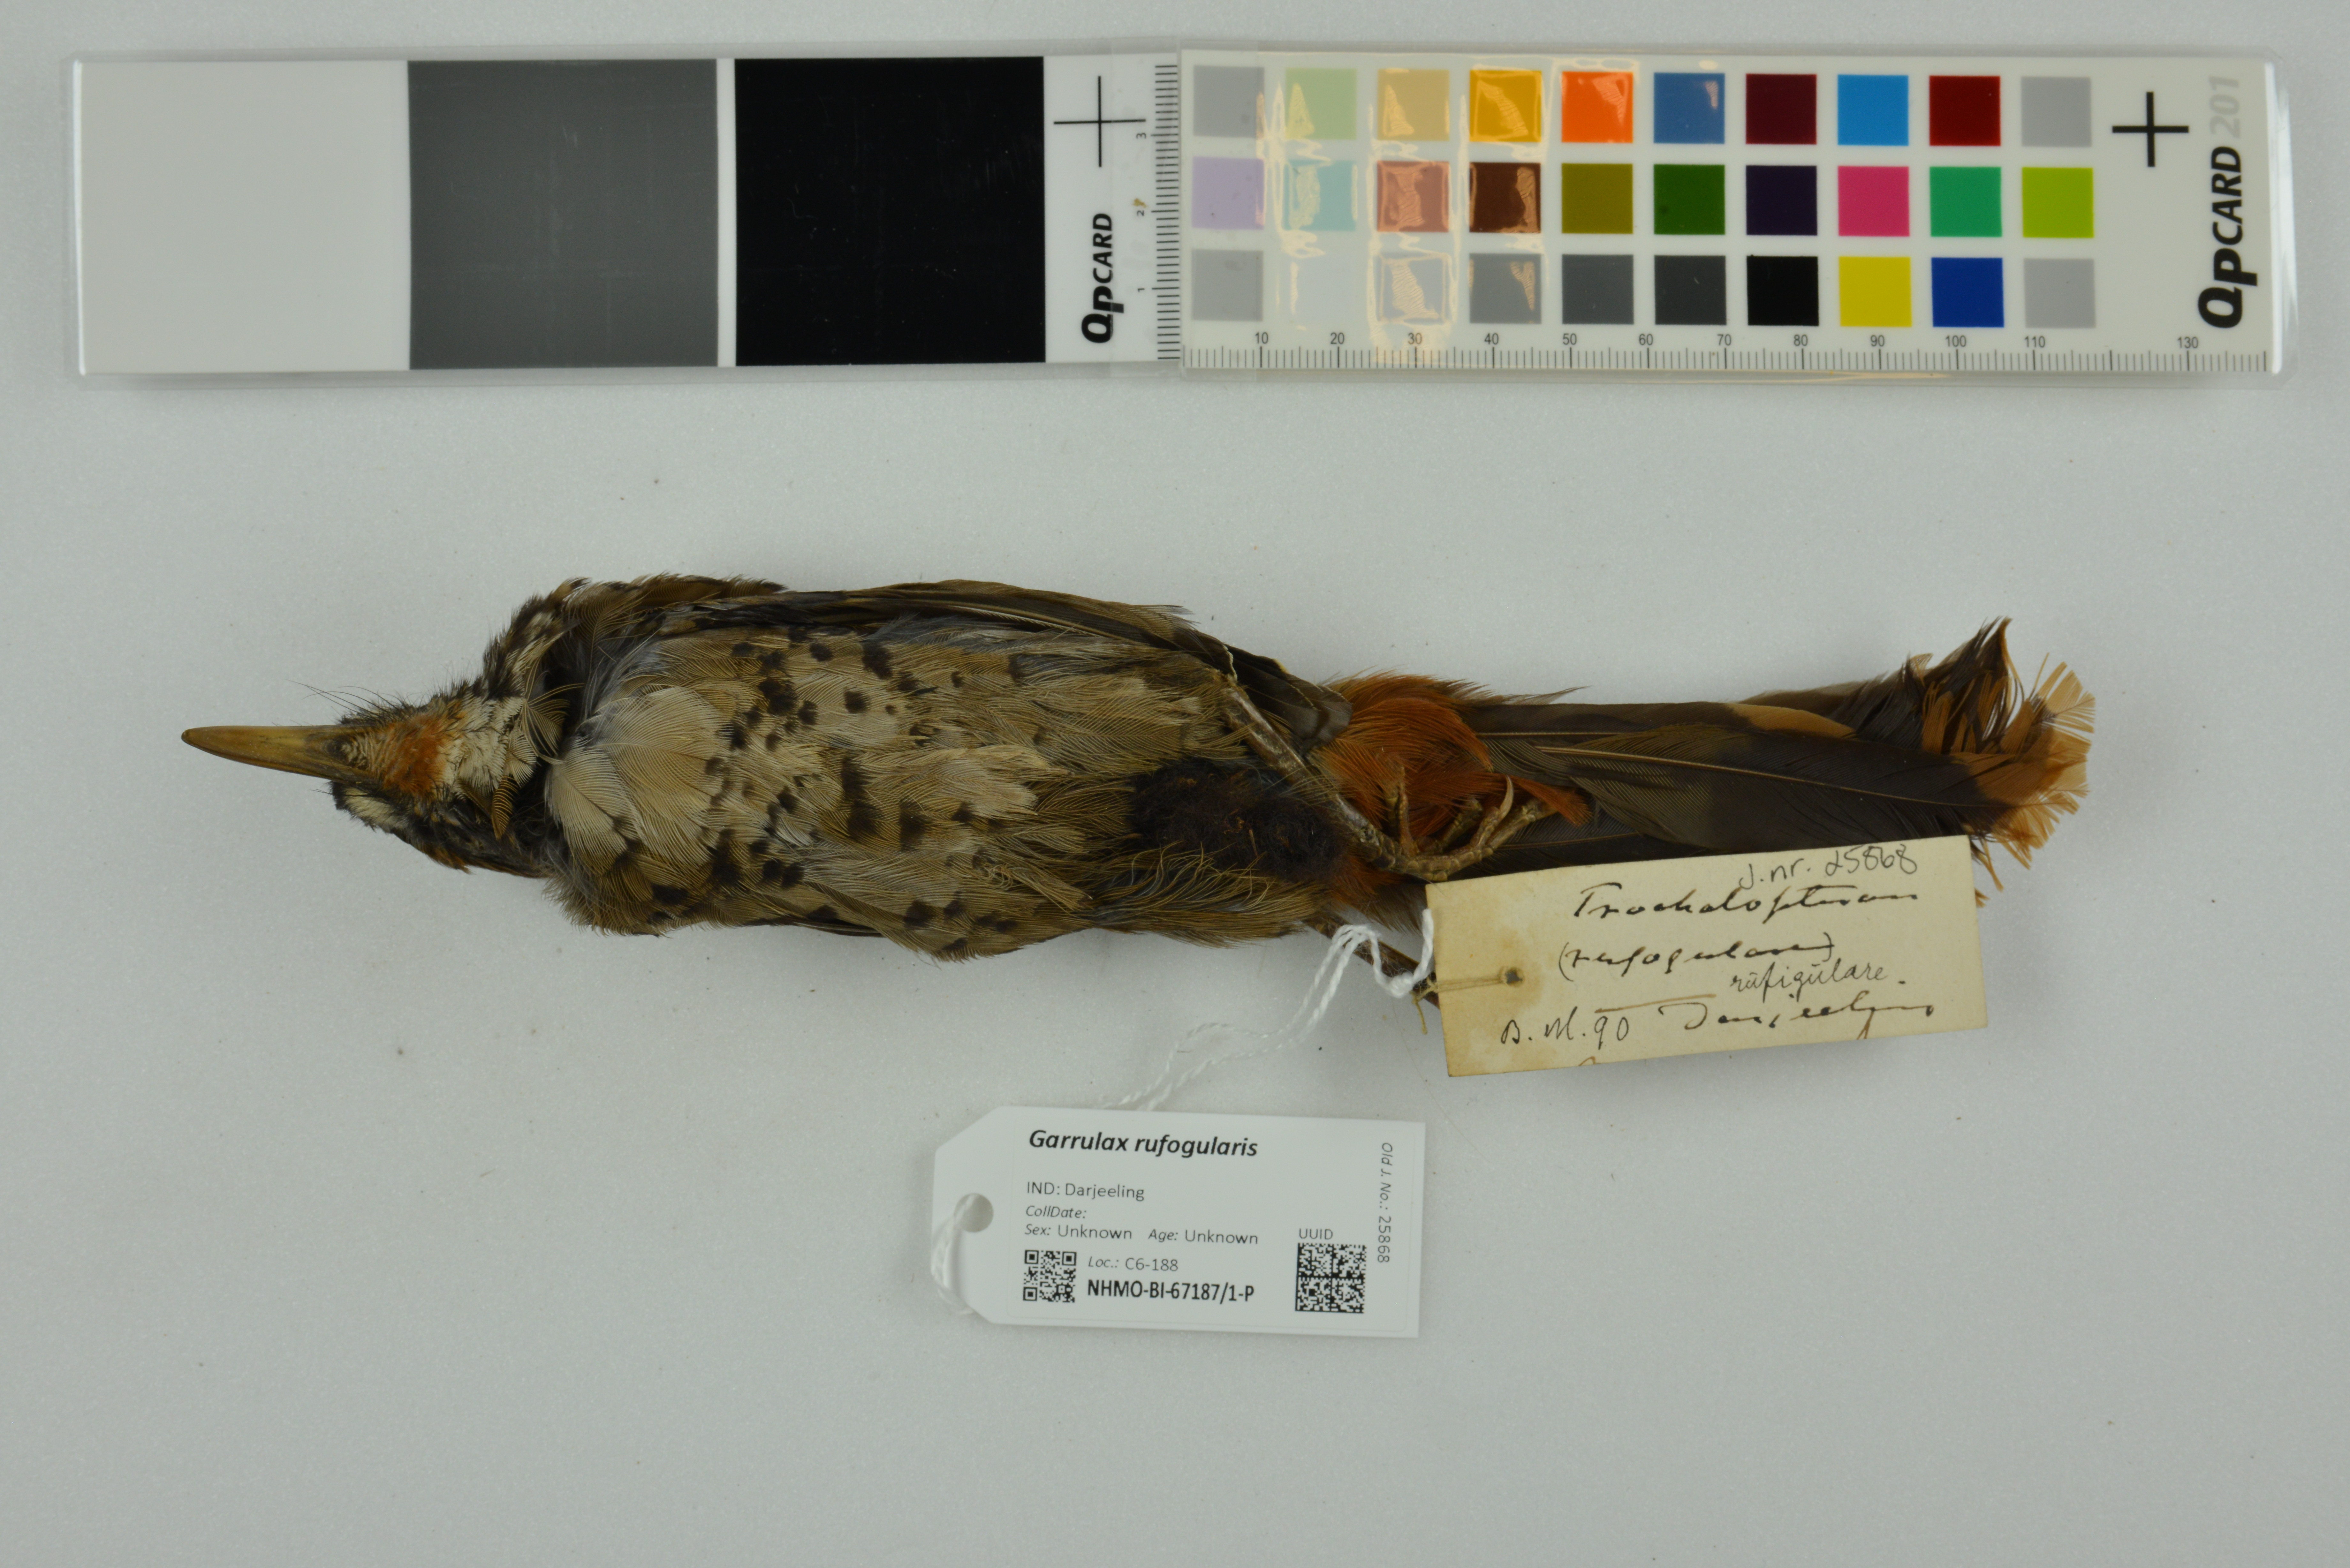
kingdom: Animalia
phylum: Chordata
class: Aves
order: Passeriformes
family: Leiothrichidae
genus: Garrulax
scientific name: Garrulax rufogularis
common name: Rufous-chinned laughingthrush
